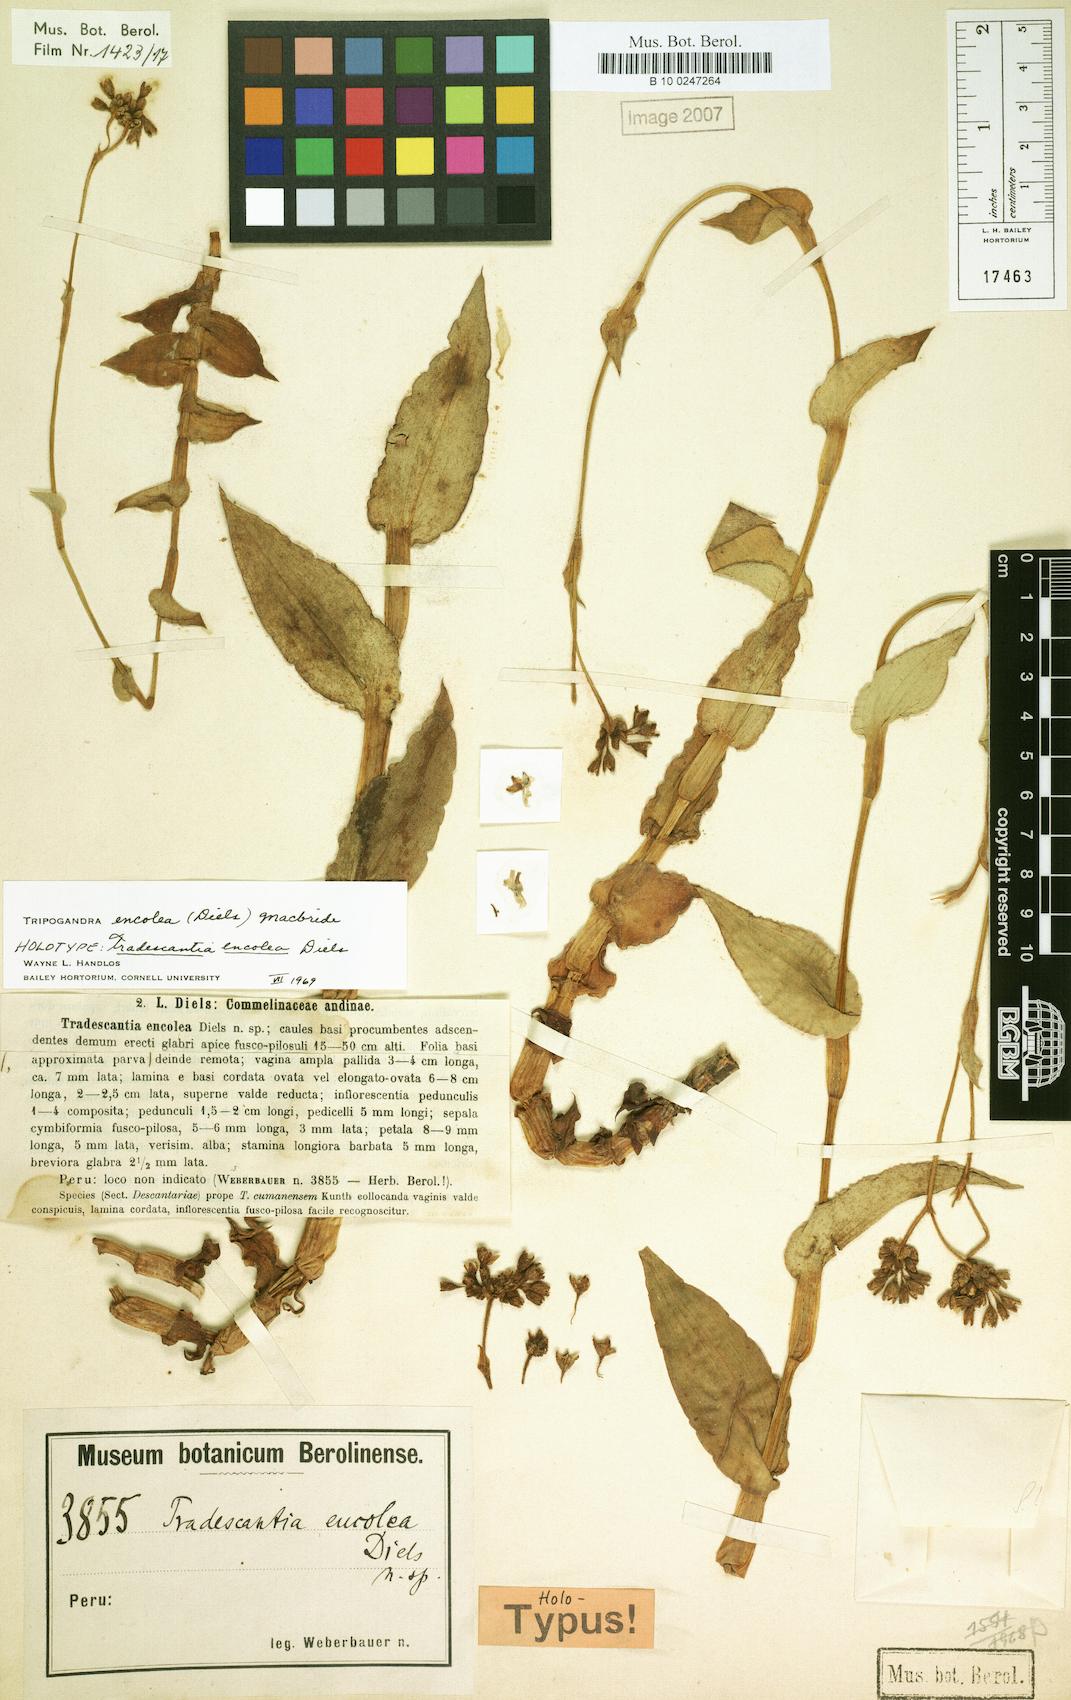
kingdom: Plantae
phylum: Tracheophyta
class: Liliopsida
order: Commelinales
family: Commelinaceae
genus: Callisia
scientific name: Callisia encolea
